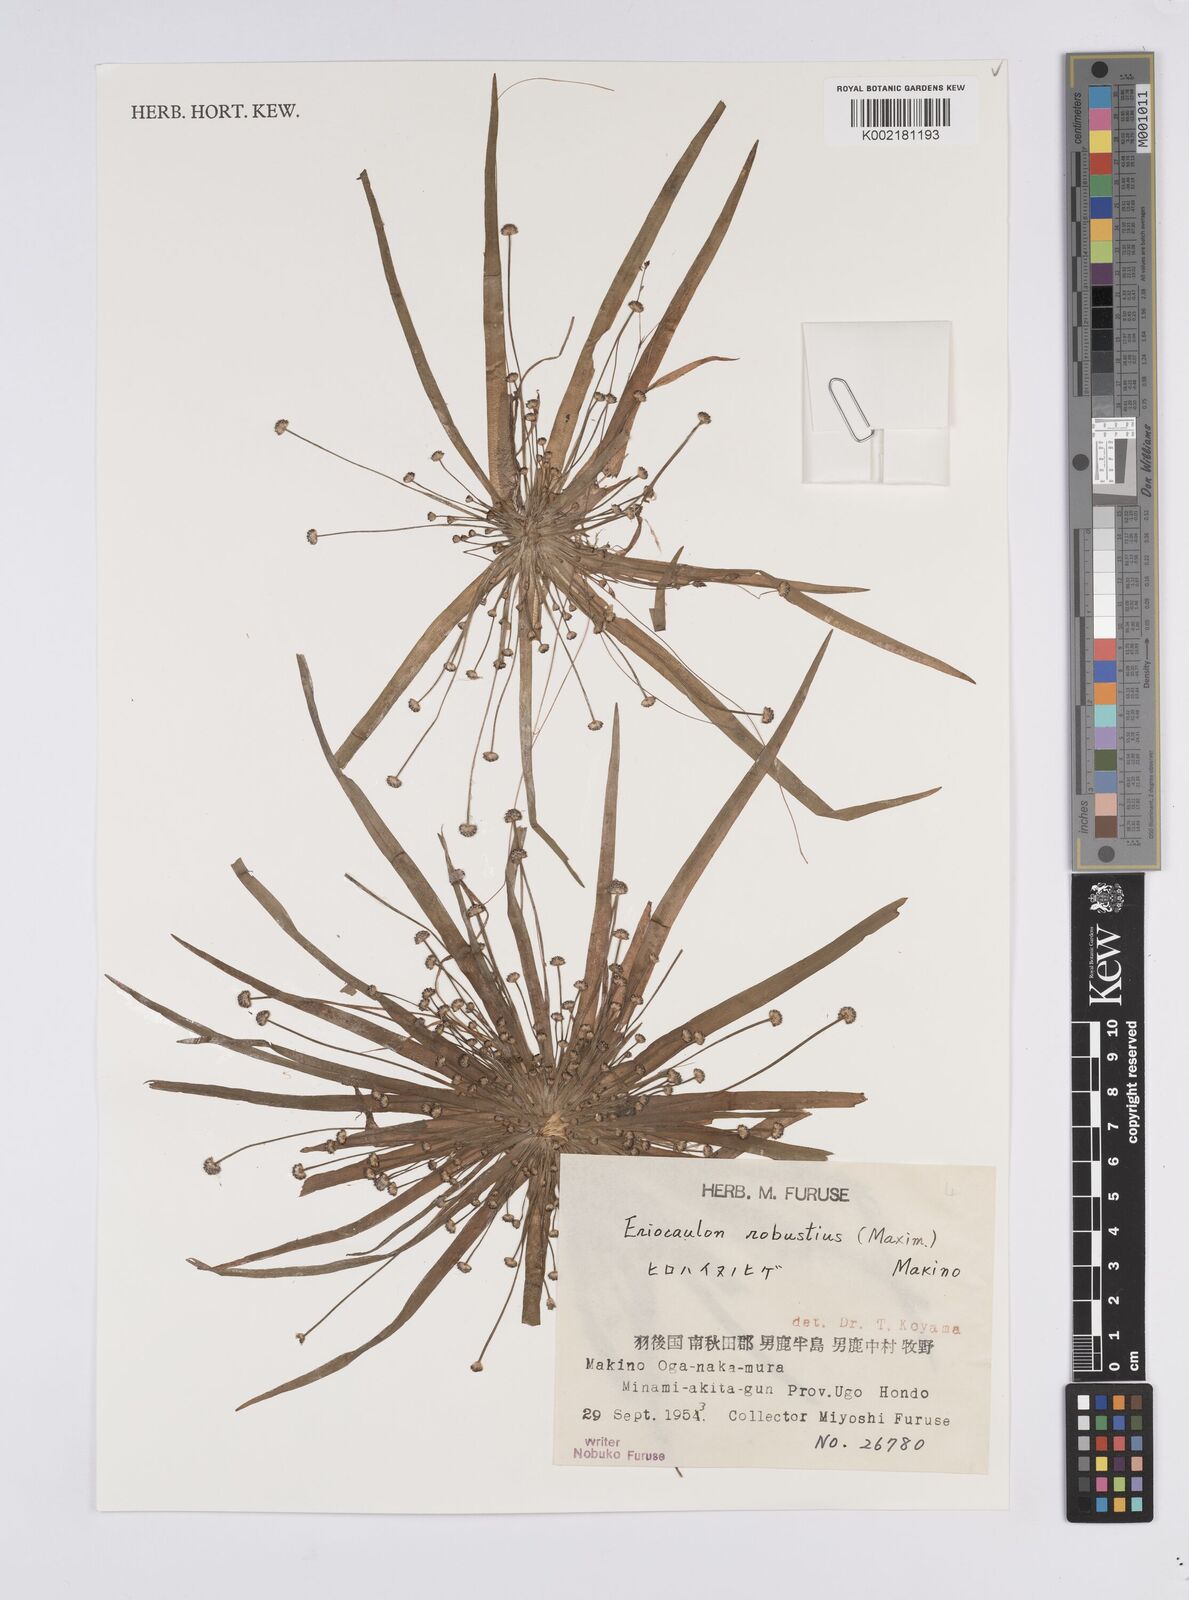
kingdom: Plantae
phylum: Tracheophyta
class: Liliopsida
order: Poales
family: Eriocaulaceae
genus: Eriocaulon
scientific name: Eriocaulon alpestre
